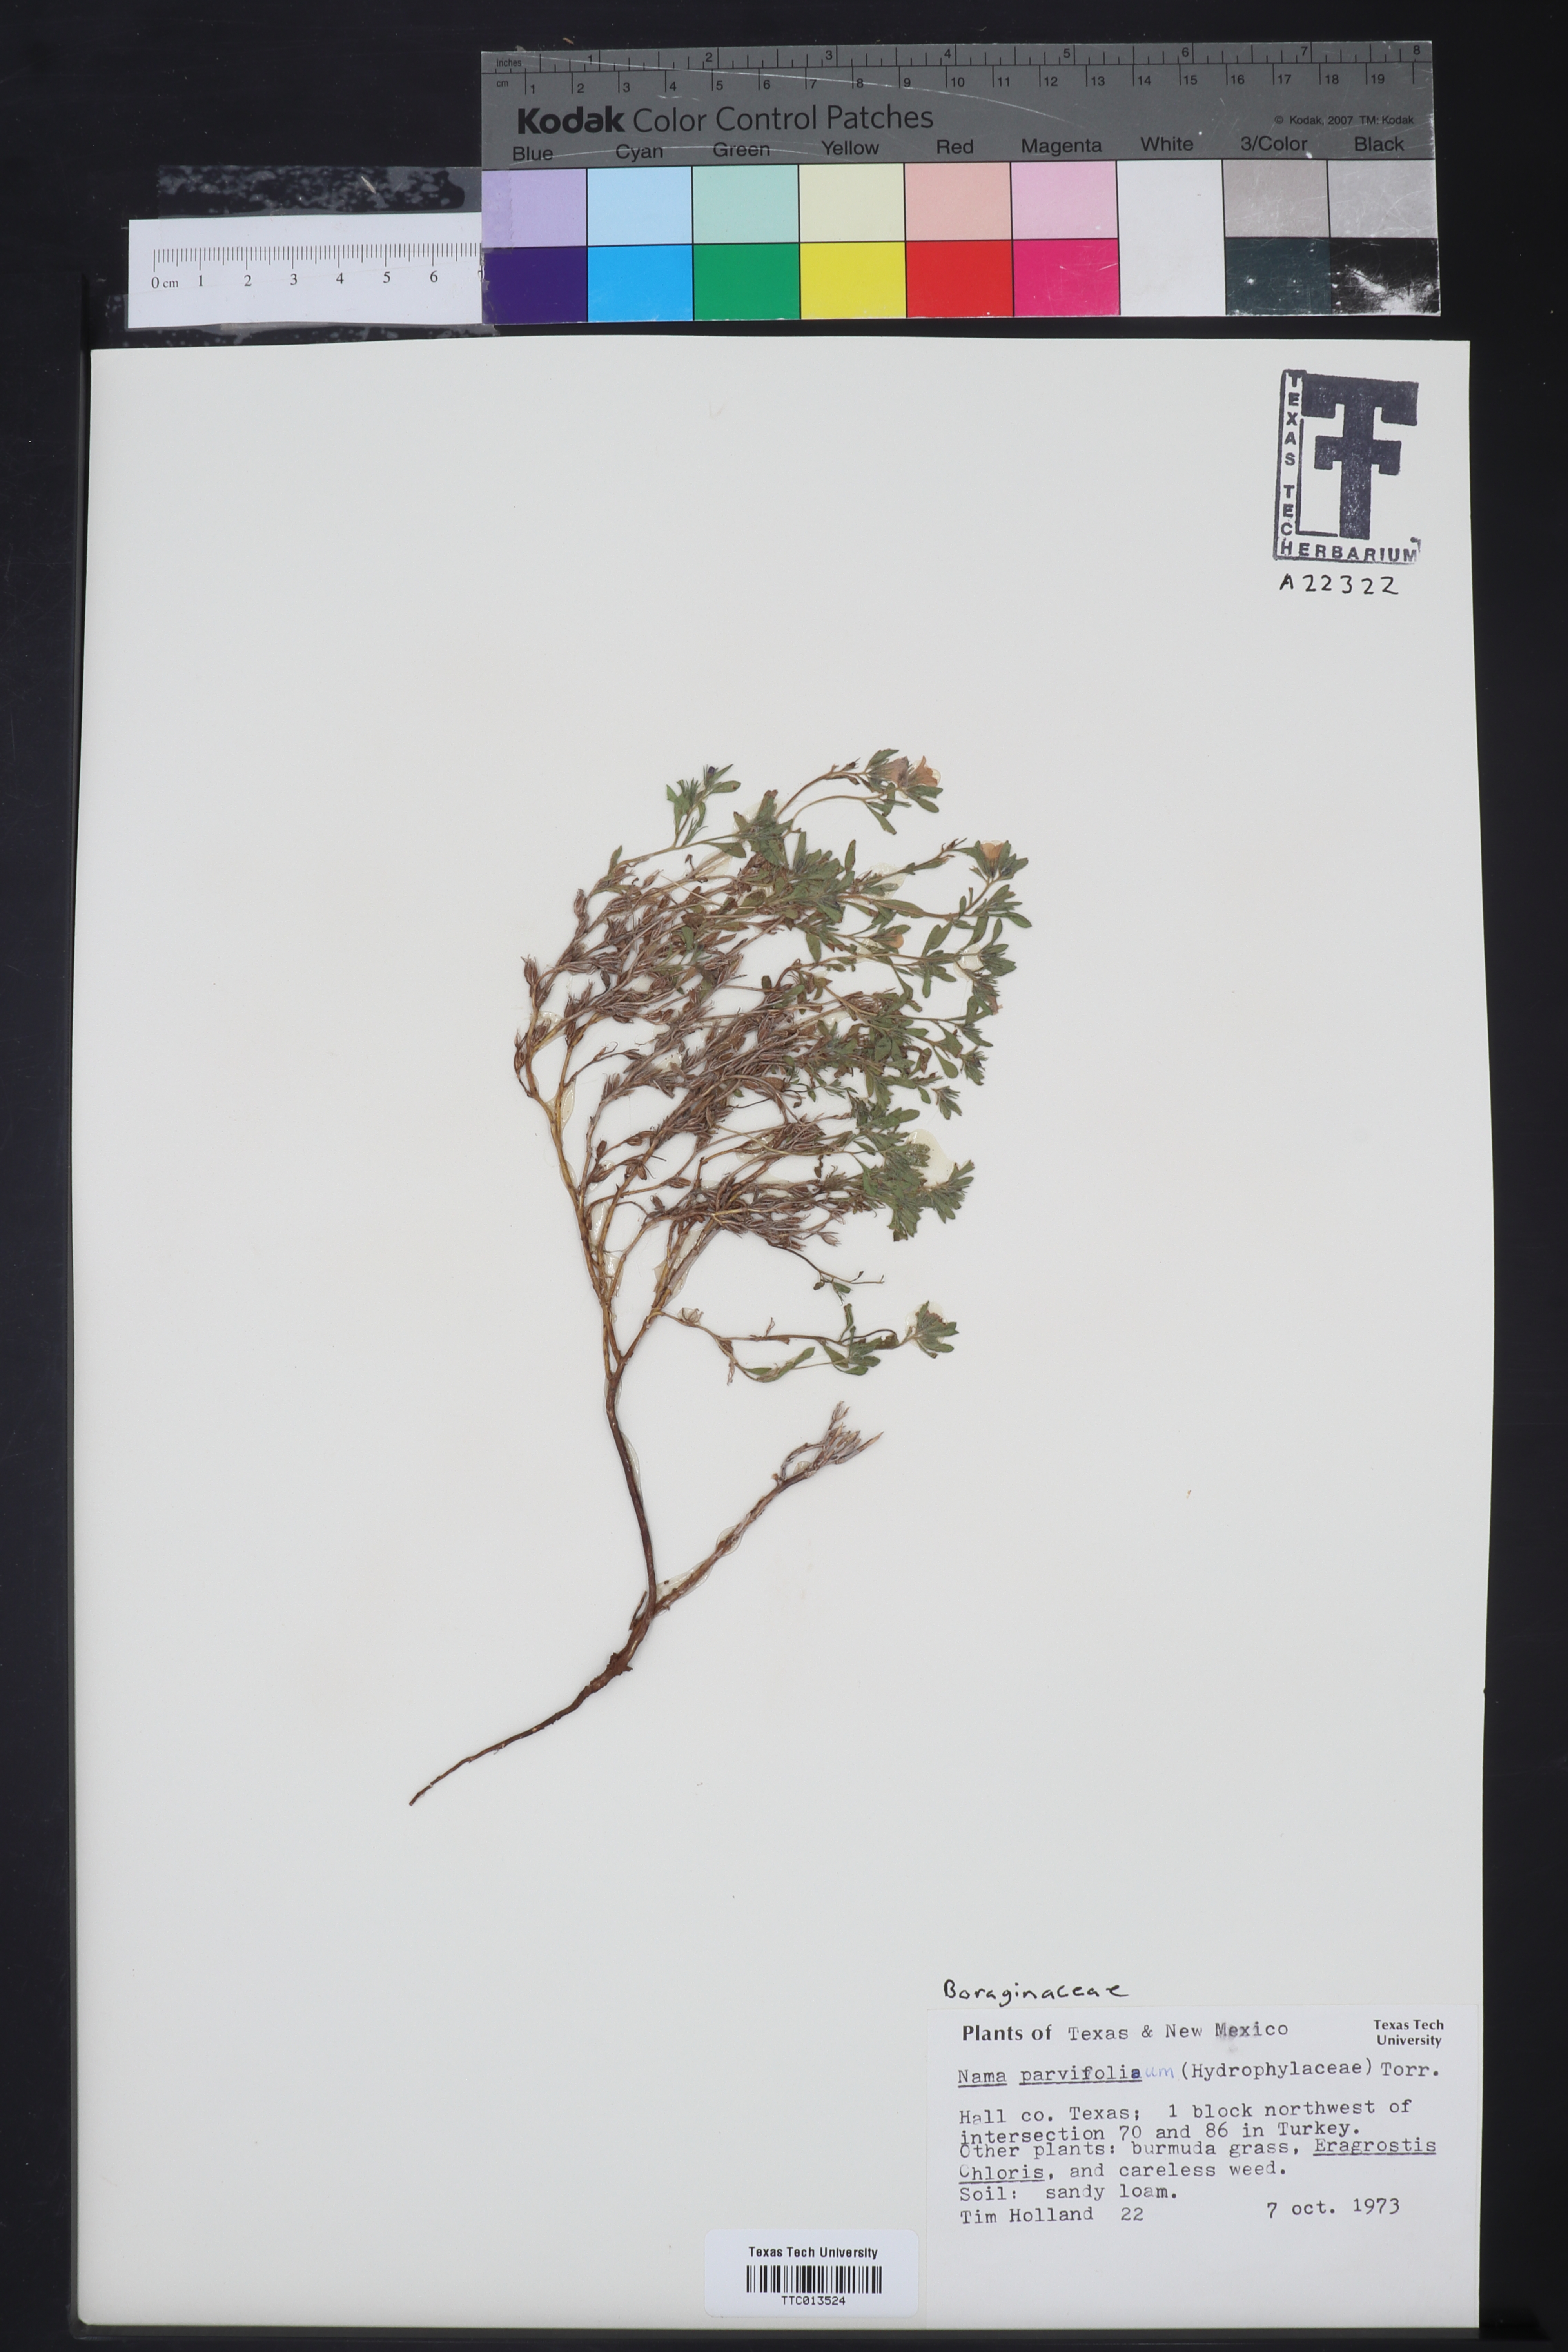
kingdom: Plantae
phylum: Tracheophyta
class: Magnoliopsida
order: Boraginales
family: Namaceae
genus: Nama
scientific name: Nama parvifolia
